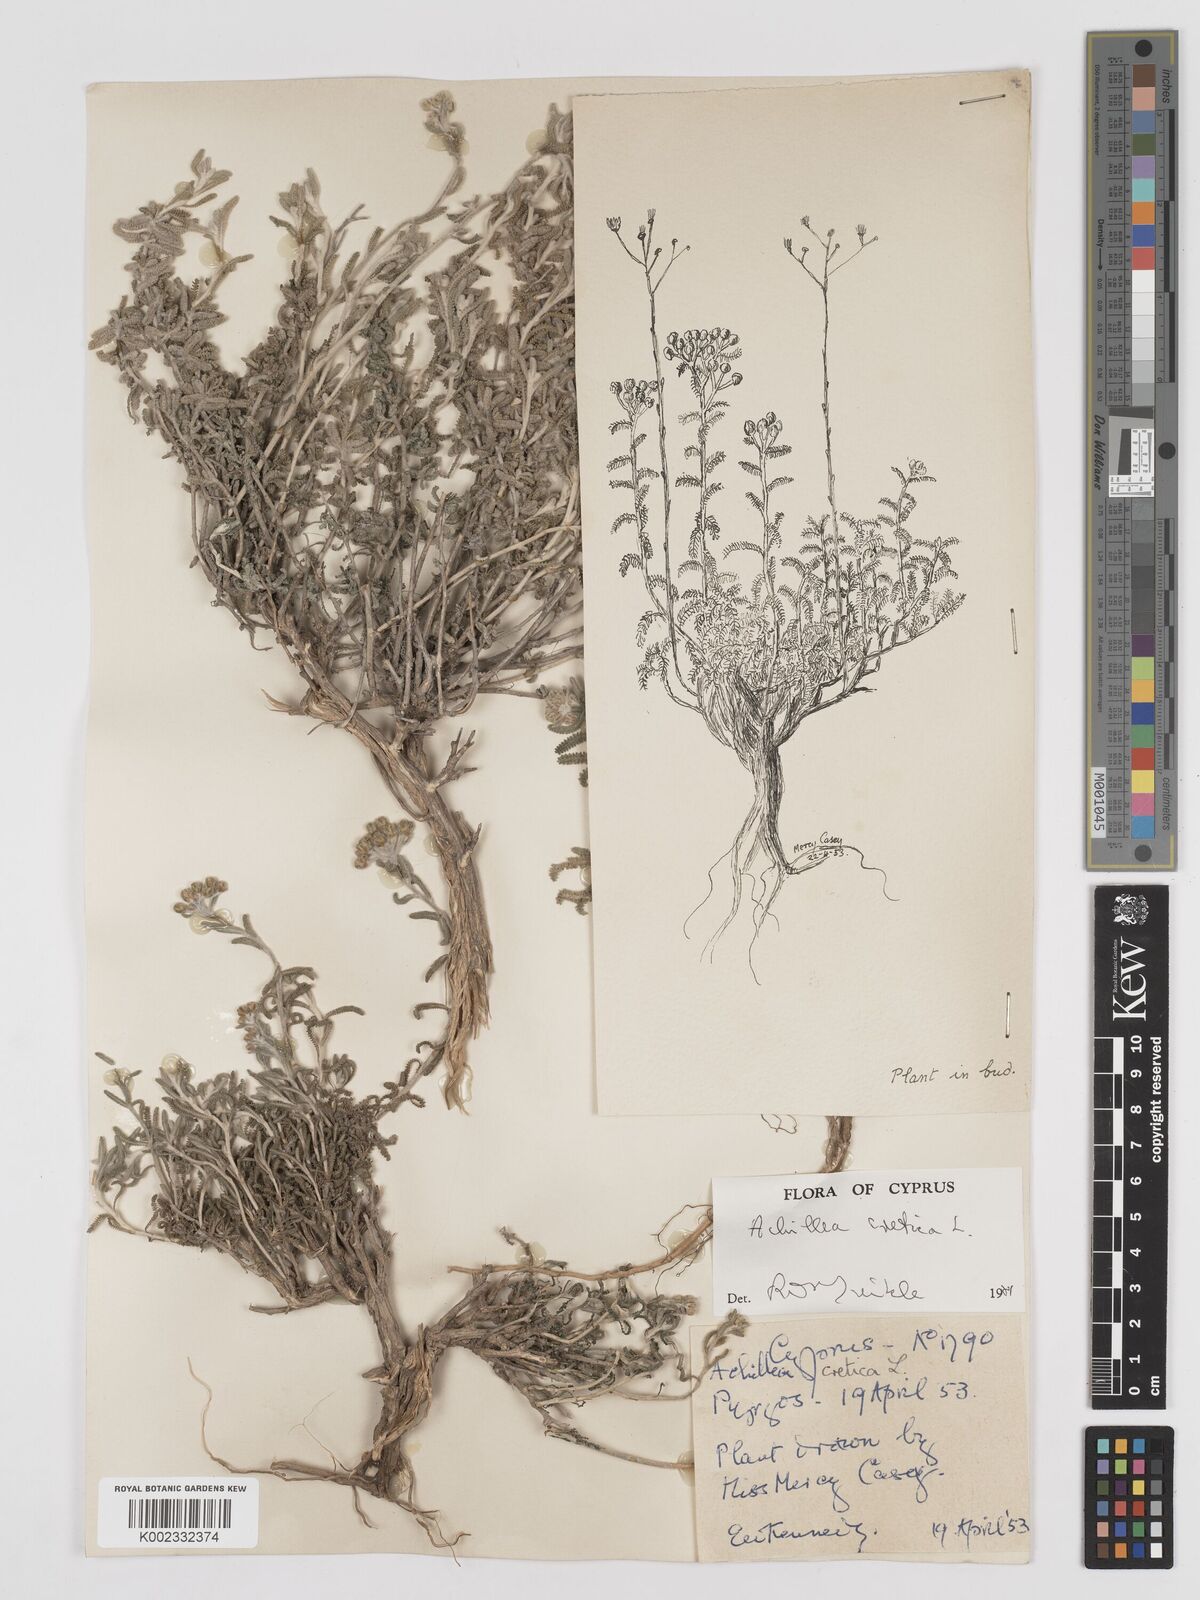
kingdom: Plantae
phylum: Tracheophyta
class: Magnoliopsida
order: Asterales
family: Asteraceae
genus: Achillea
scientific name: Achillea cretica
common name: Chamomile-leaved lavender-cotton
